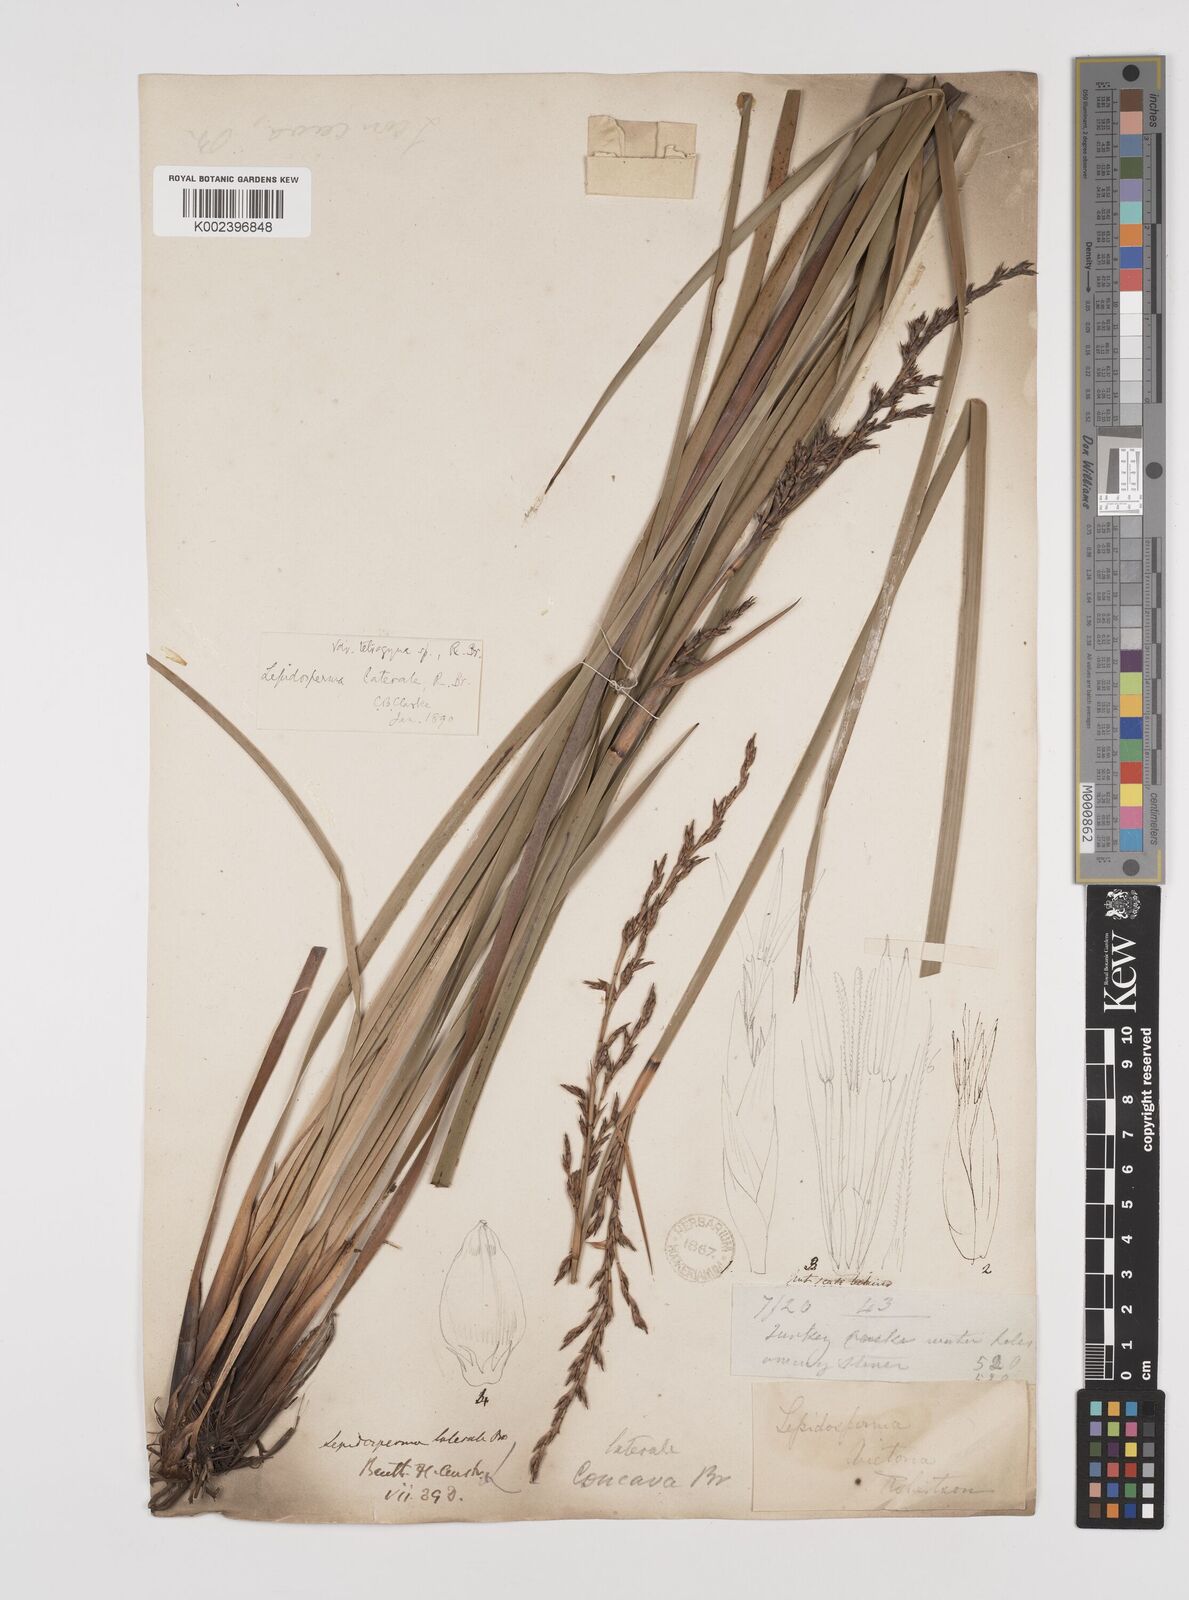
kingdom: Plantae
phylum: Tracheophyta
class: Liliopsida
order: Poales
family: Cyperaceae
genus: Lepidosperma
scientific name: Lepidosperma laterale
